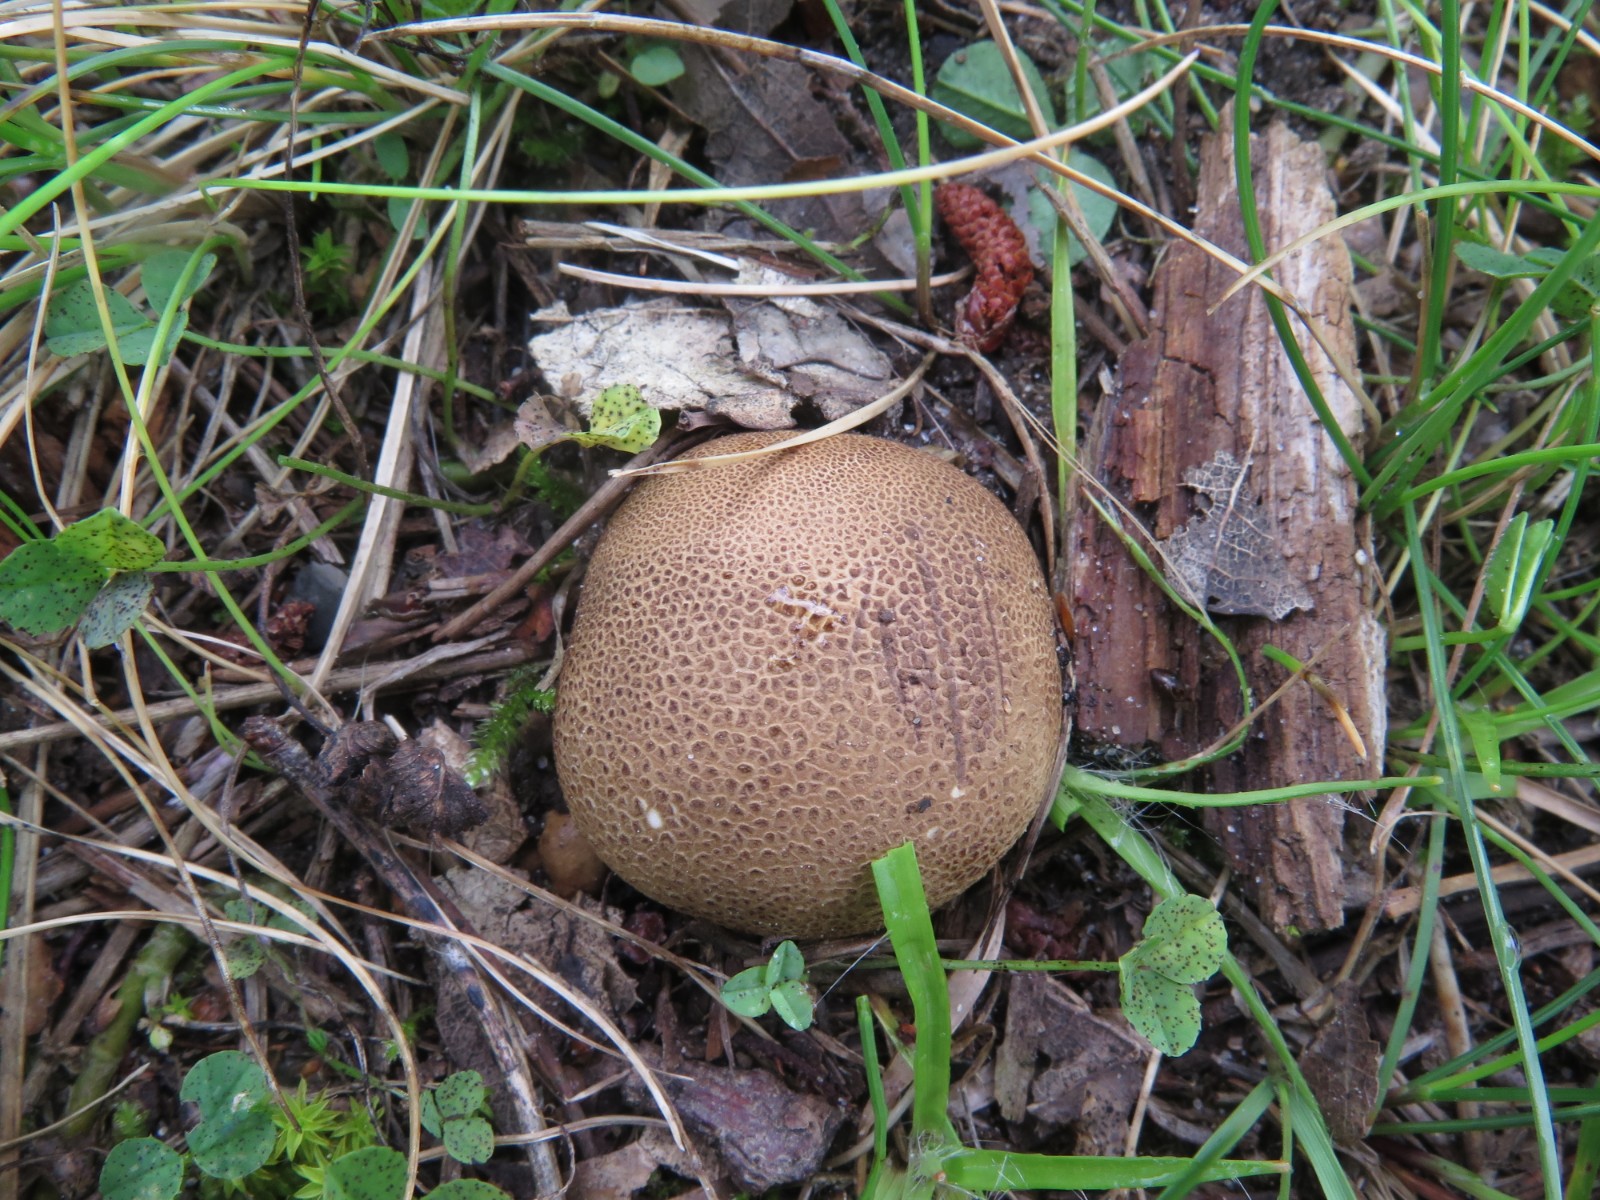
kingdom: Fungi
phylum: Basidiomycota
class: Agaricomycetes
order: Boletales
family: Sclerodermataceae
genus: Scleroderma
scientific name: Scleroderma areolatum
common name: plettet bruskbold
